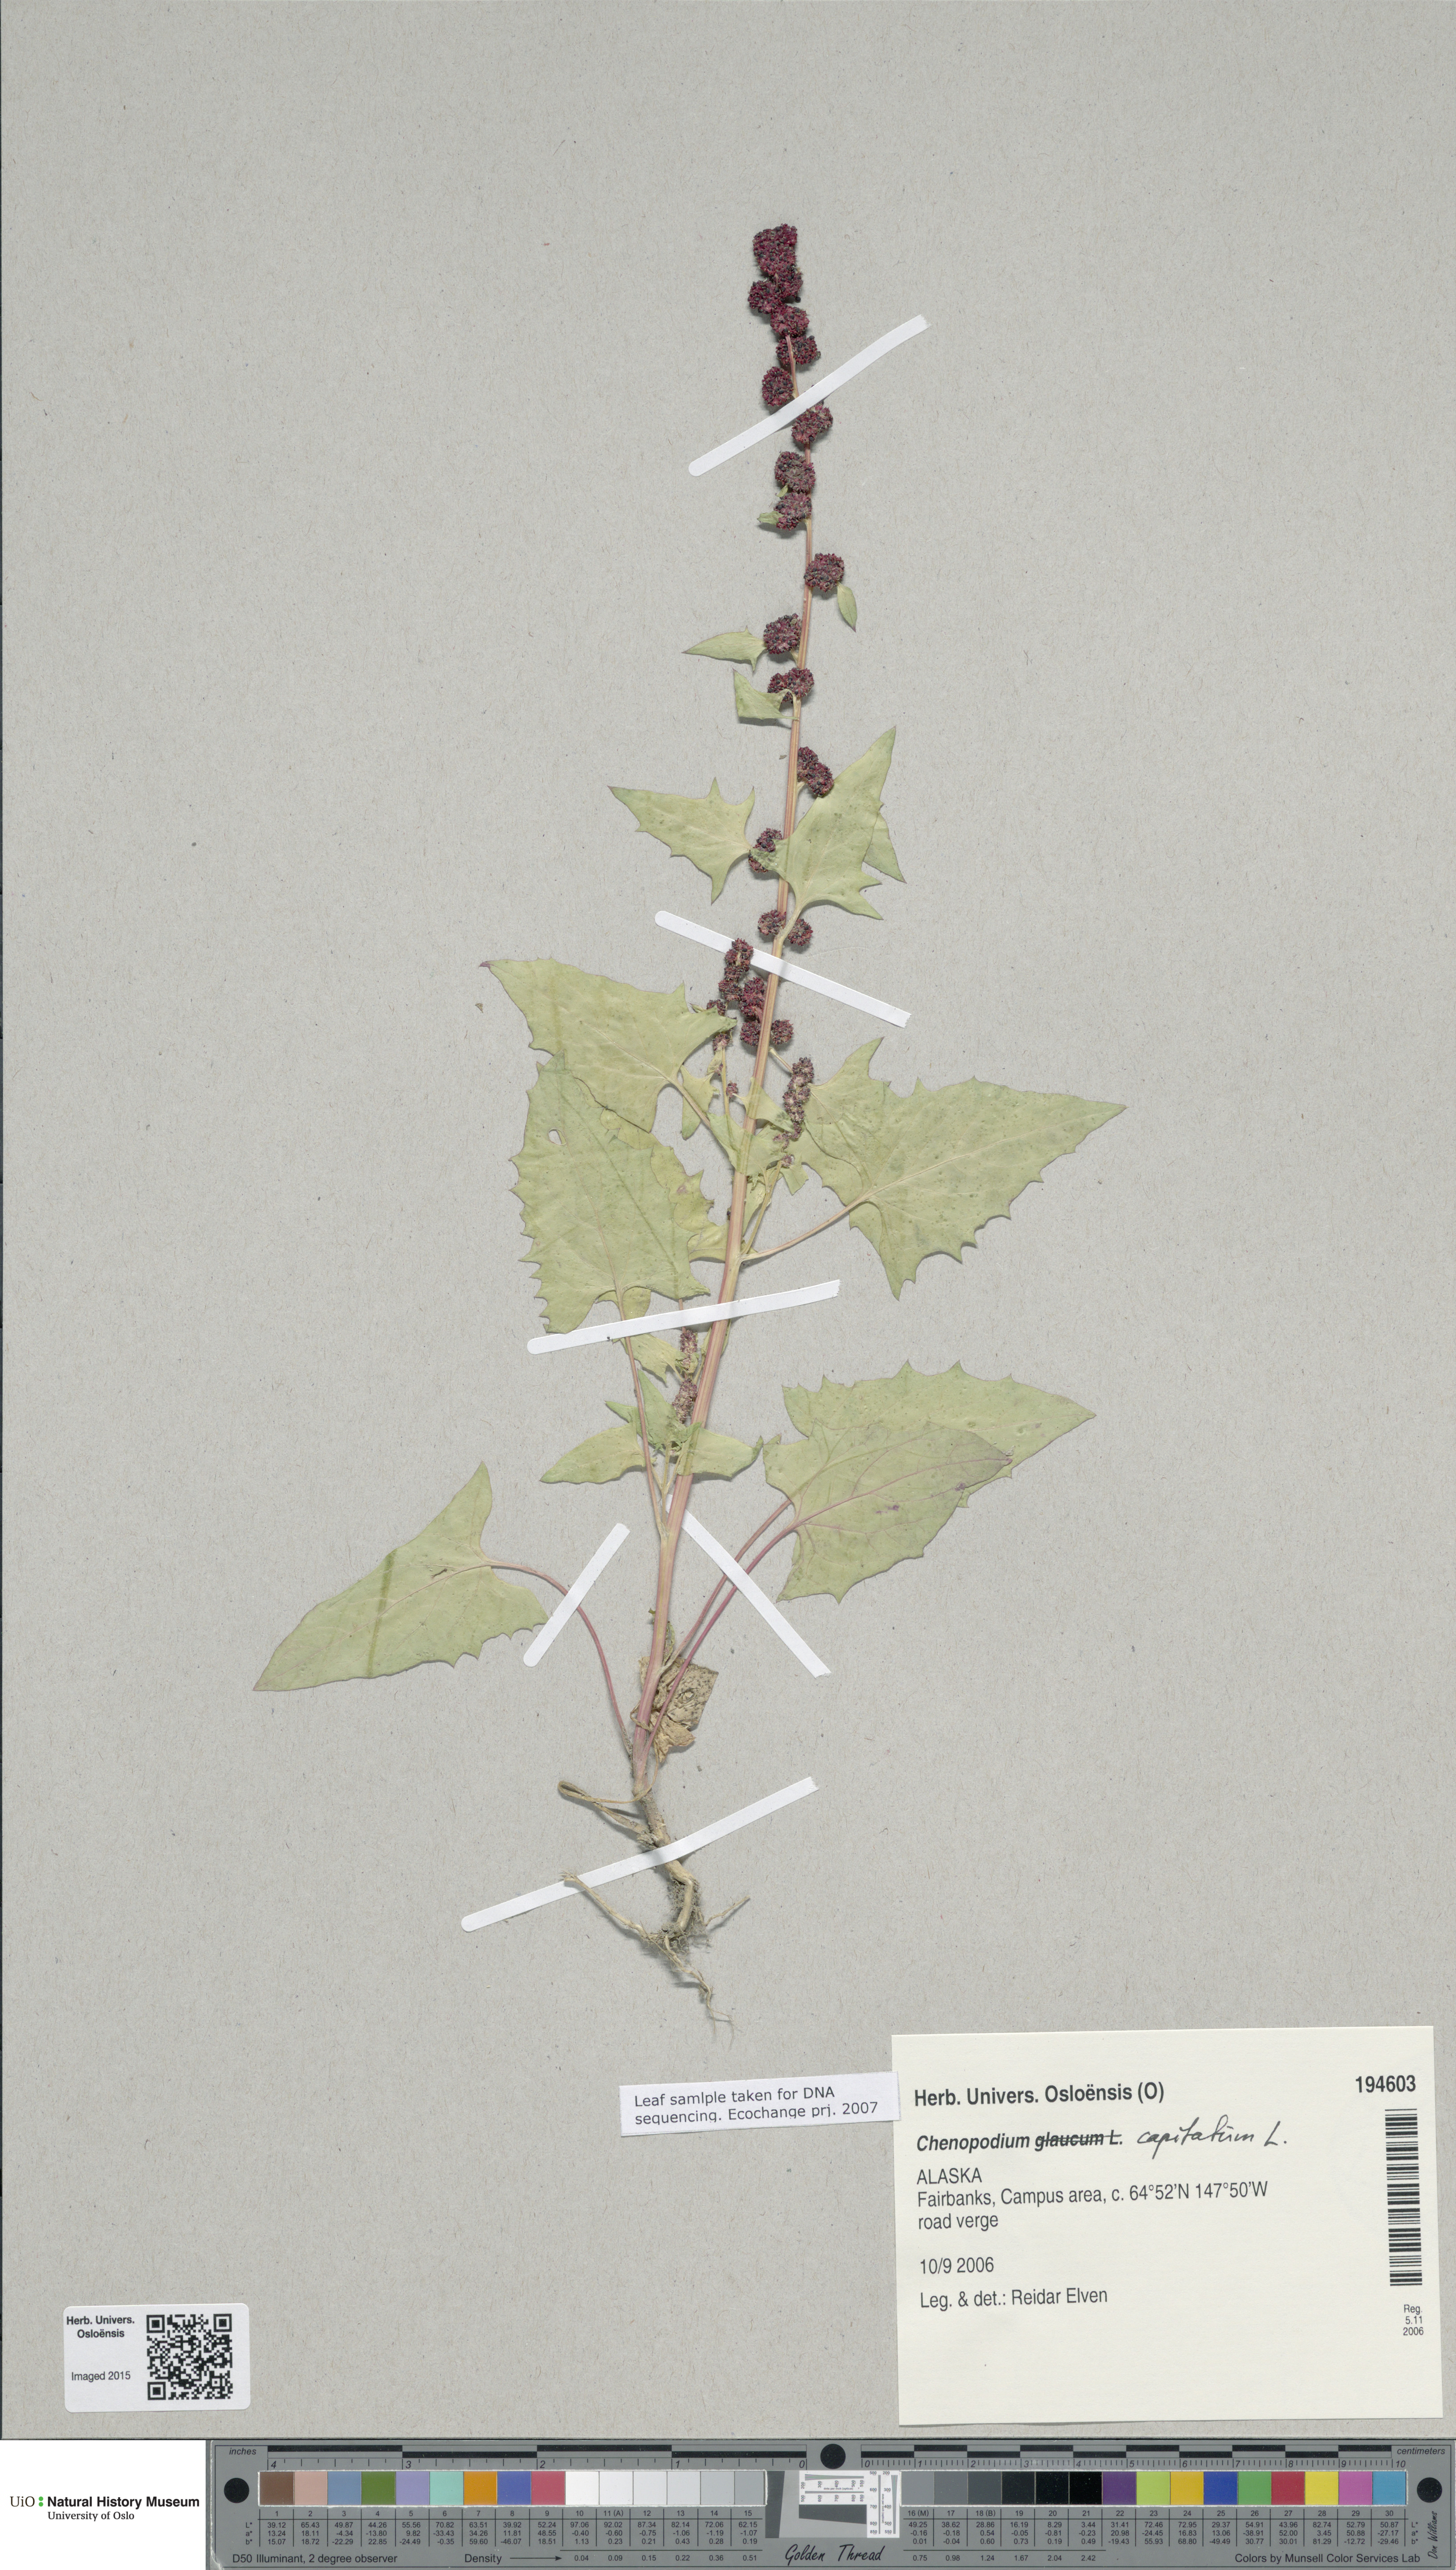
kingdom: Plantae
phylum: Tracheophyta
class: Magnoliopsida
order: Caryophyllales
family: Amaranthaceae
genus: Oxybasis
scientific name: Oxybasis glauca
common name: Glaucous goosefoot
